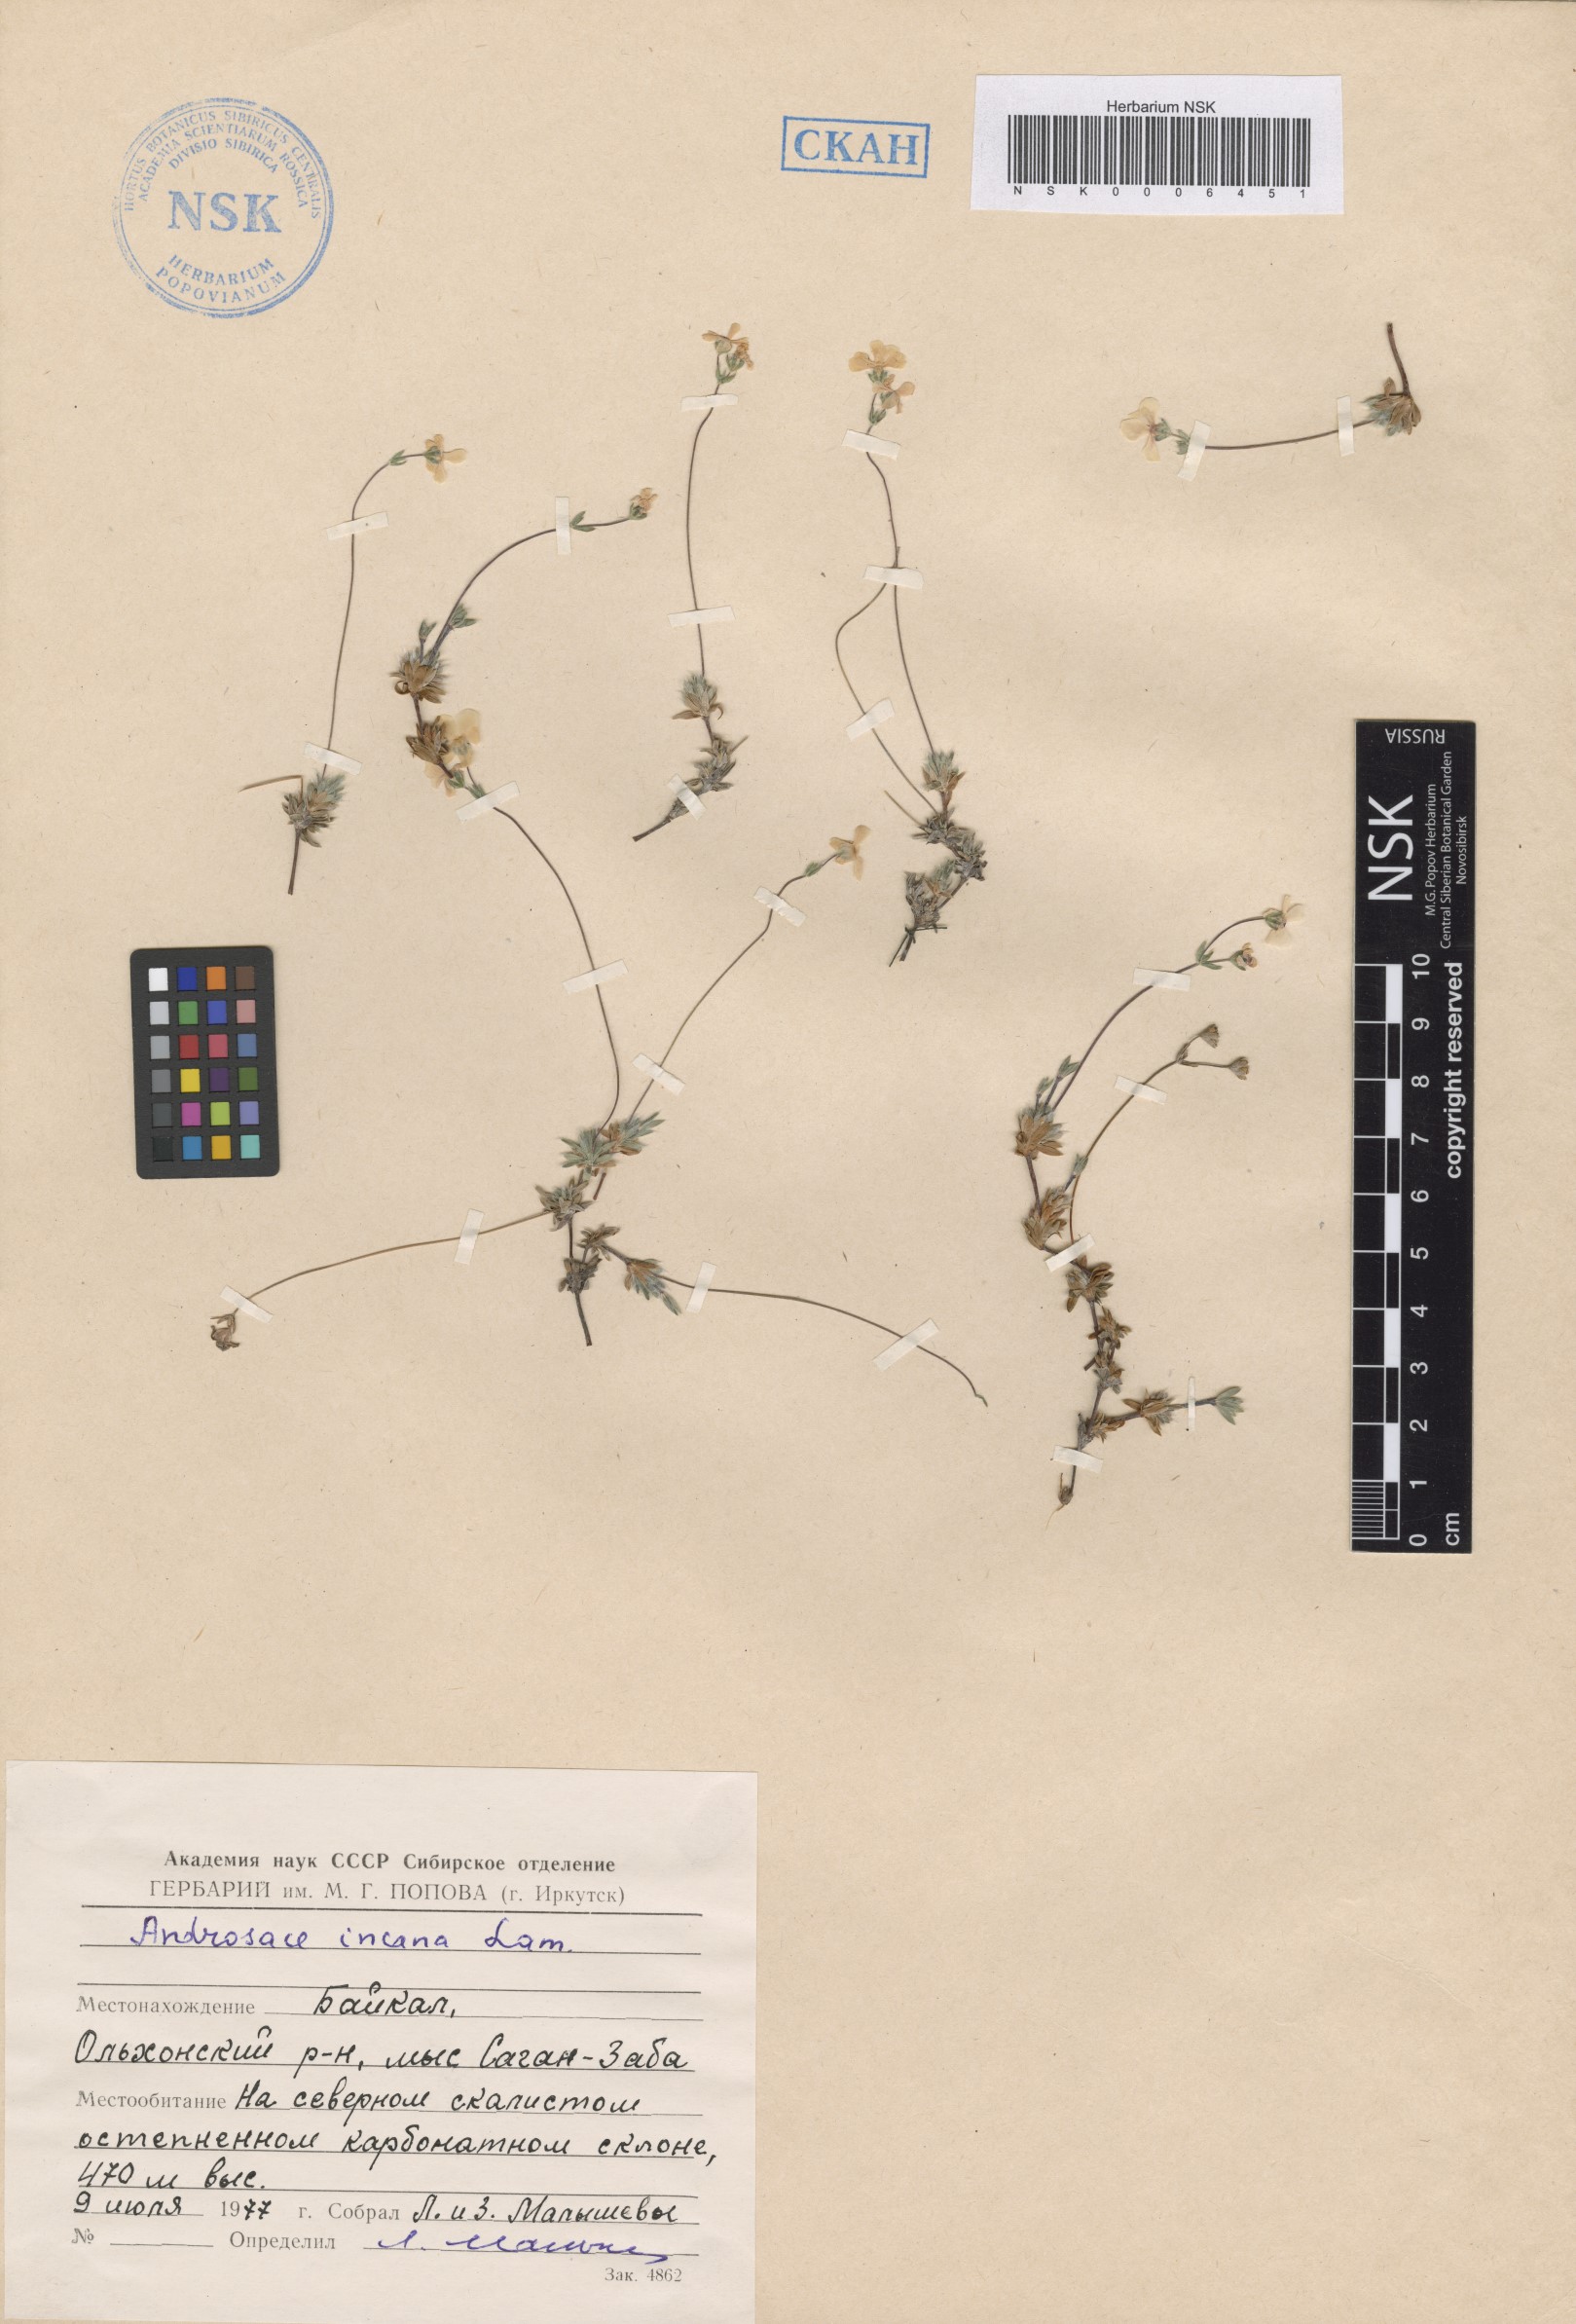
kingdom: Plantae
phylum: Tracheophyta
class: Magnoliopsida
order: Ericales
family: Primulaceae
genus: Androsace
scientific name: Androsace incana
